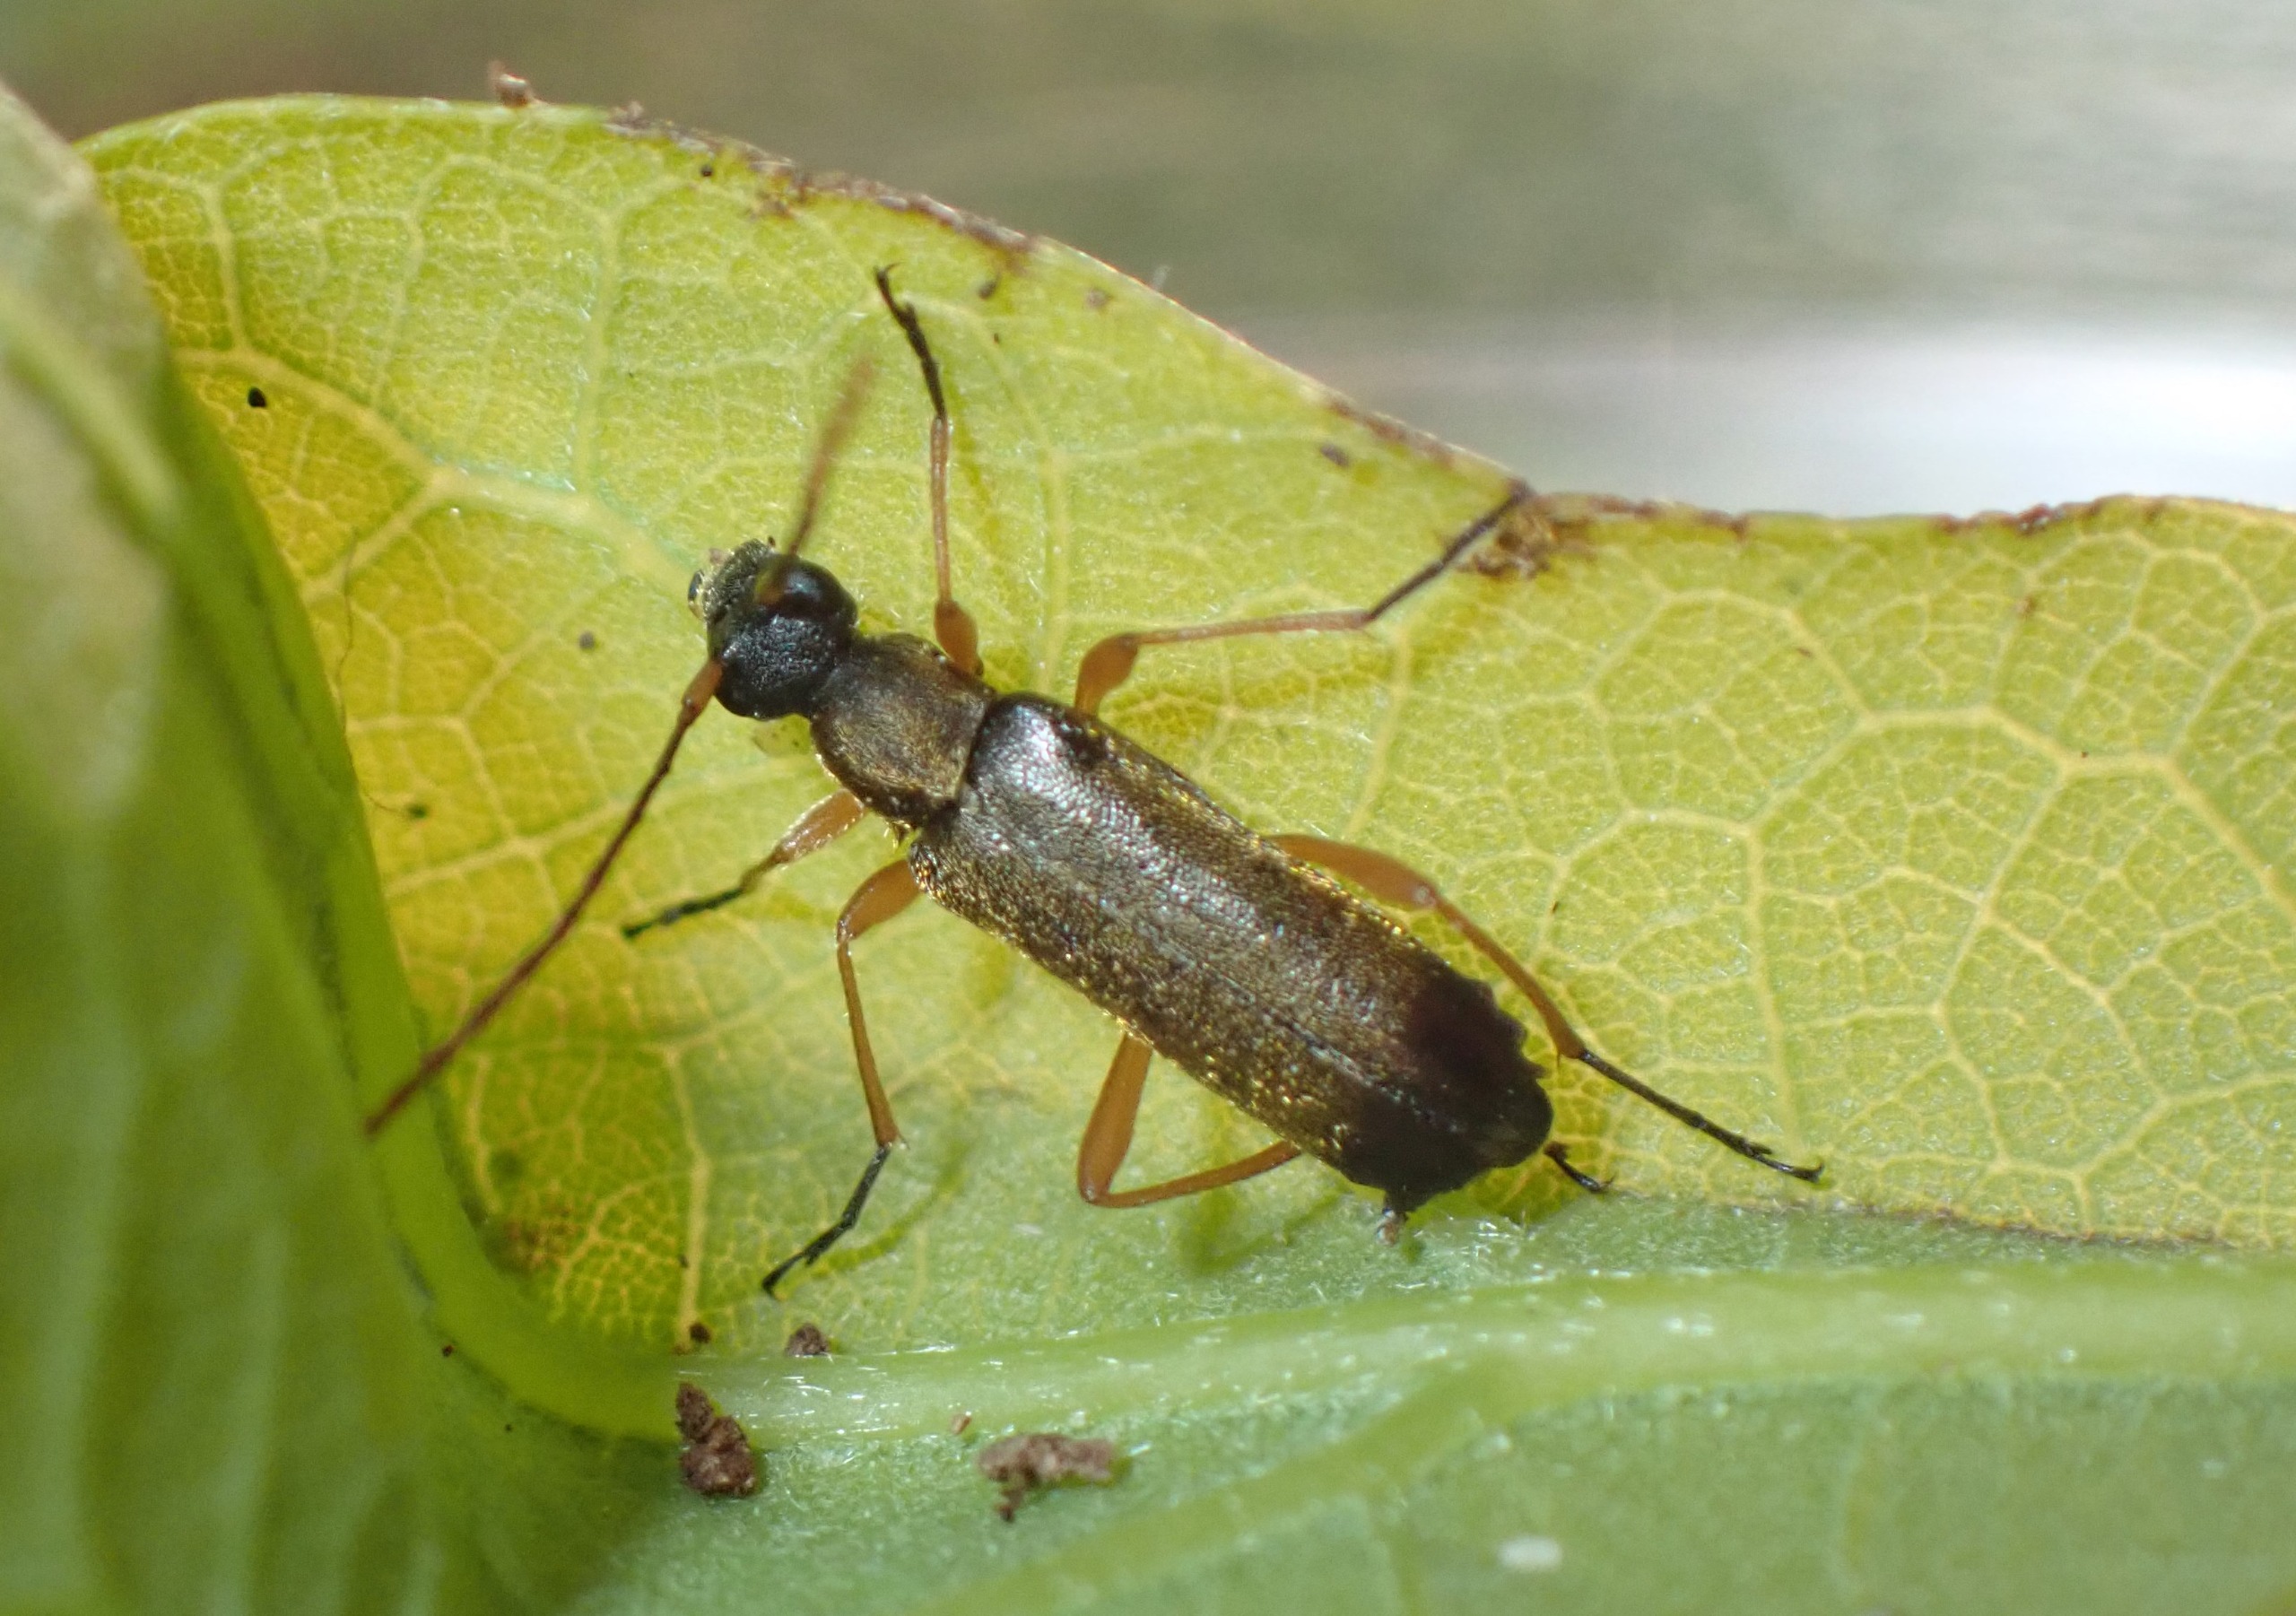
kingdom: Animalia
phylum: Arthropoda
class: Insecta
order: Coleoptera
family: Cerambycidae
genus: Grammoptera
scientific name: Grammoptera ustulata
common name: Guldhåret blomsterbuk
